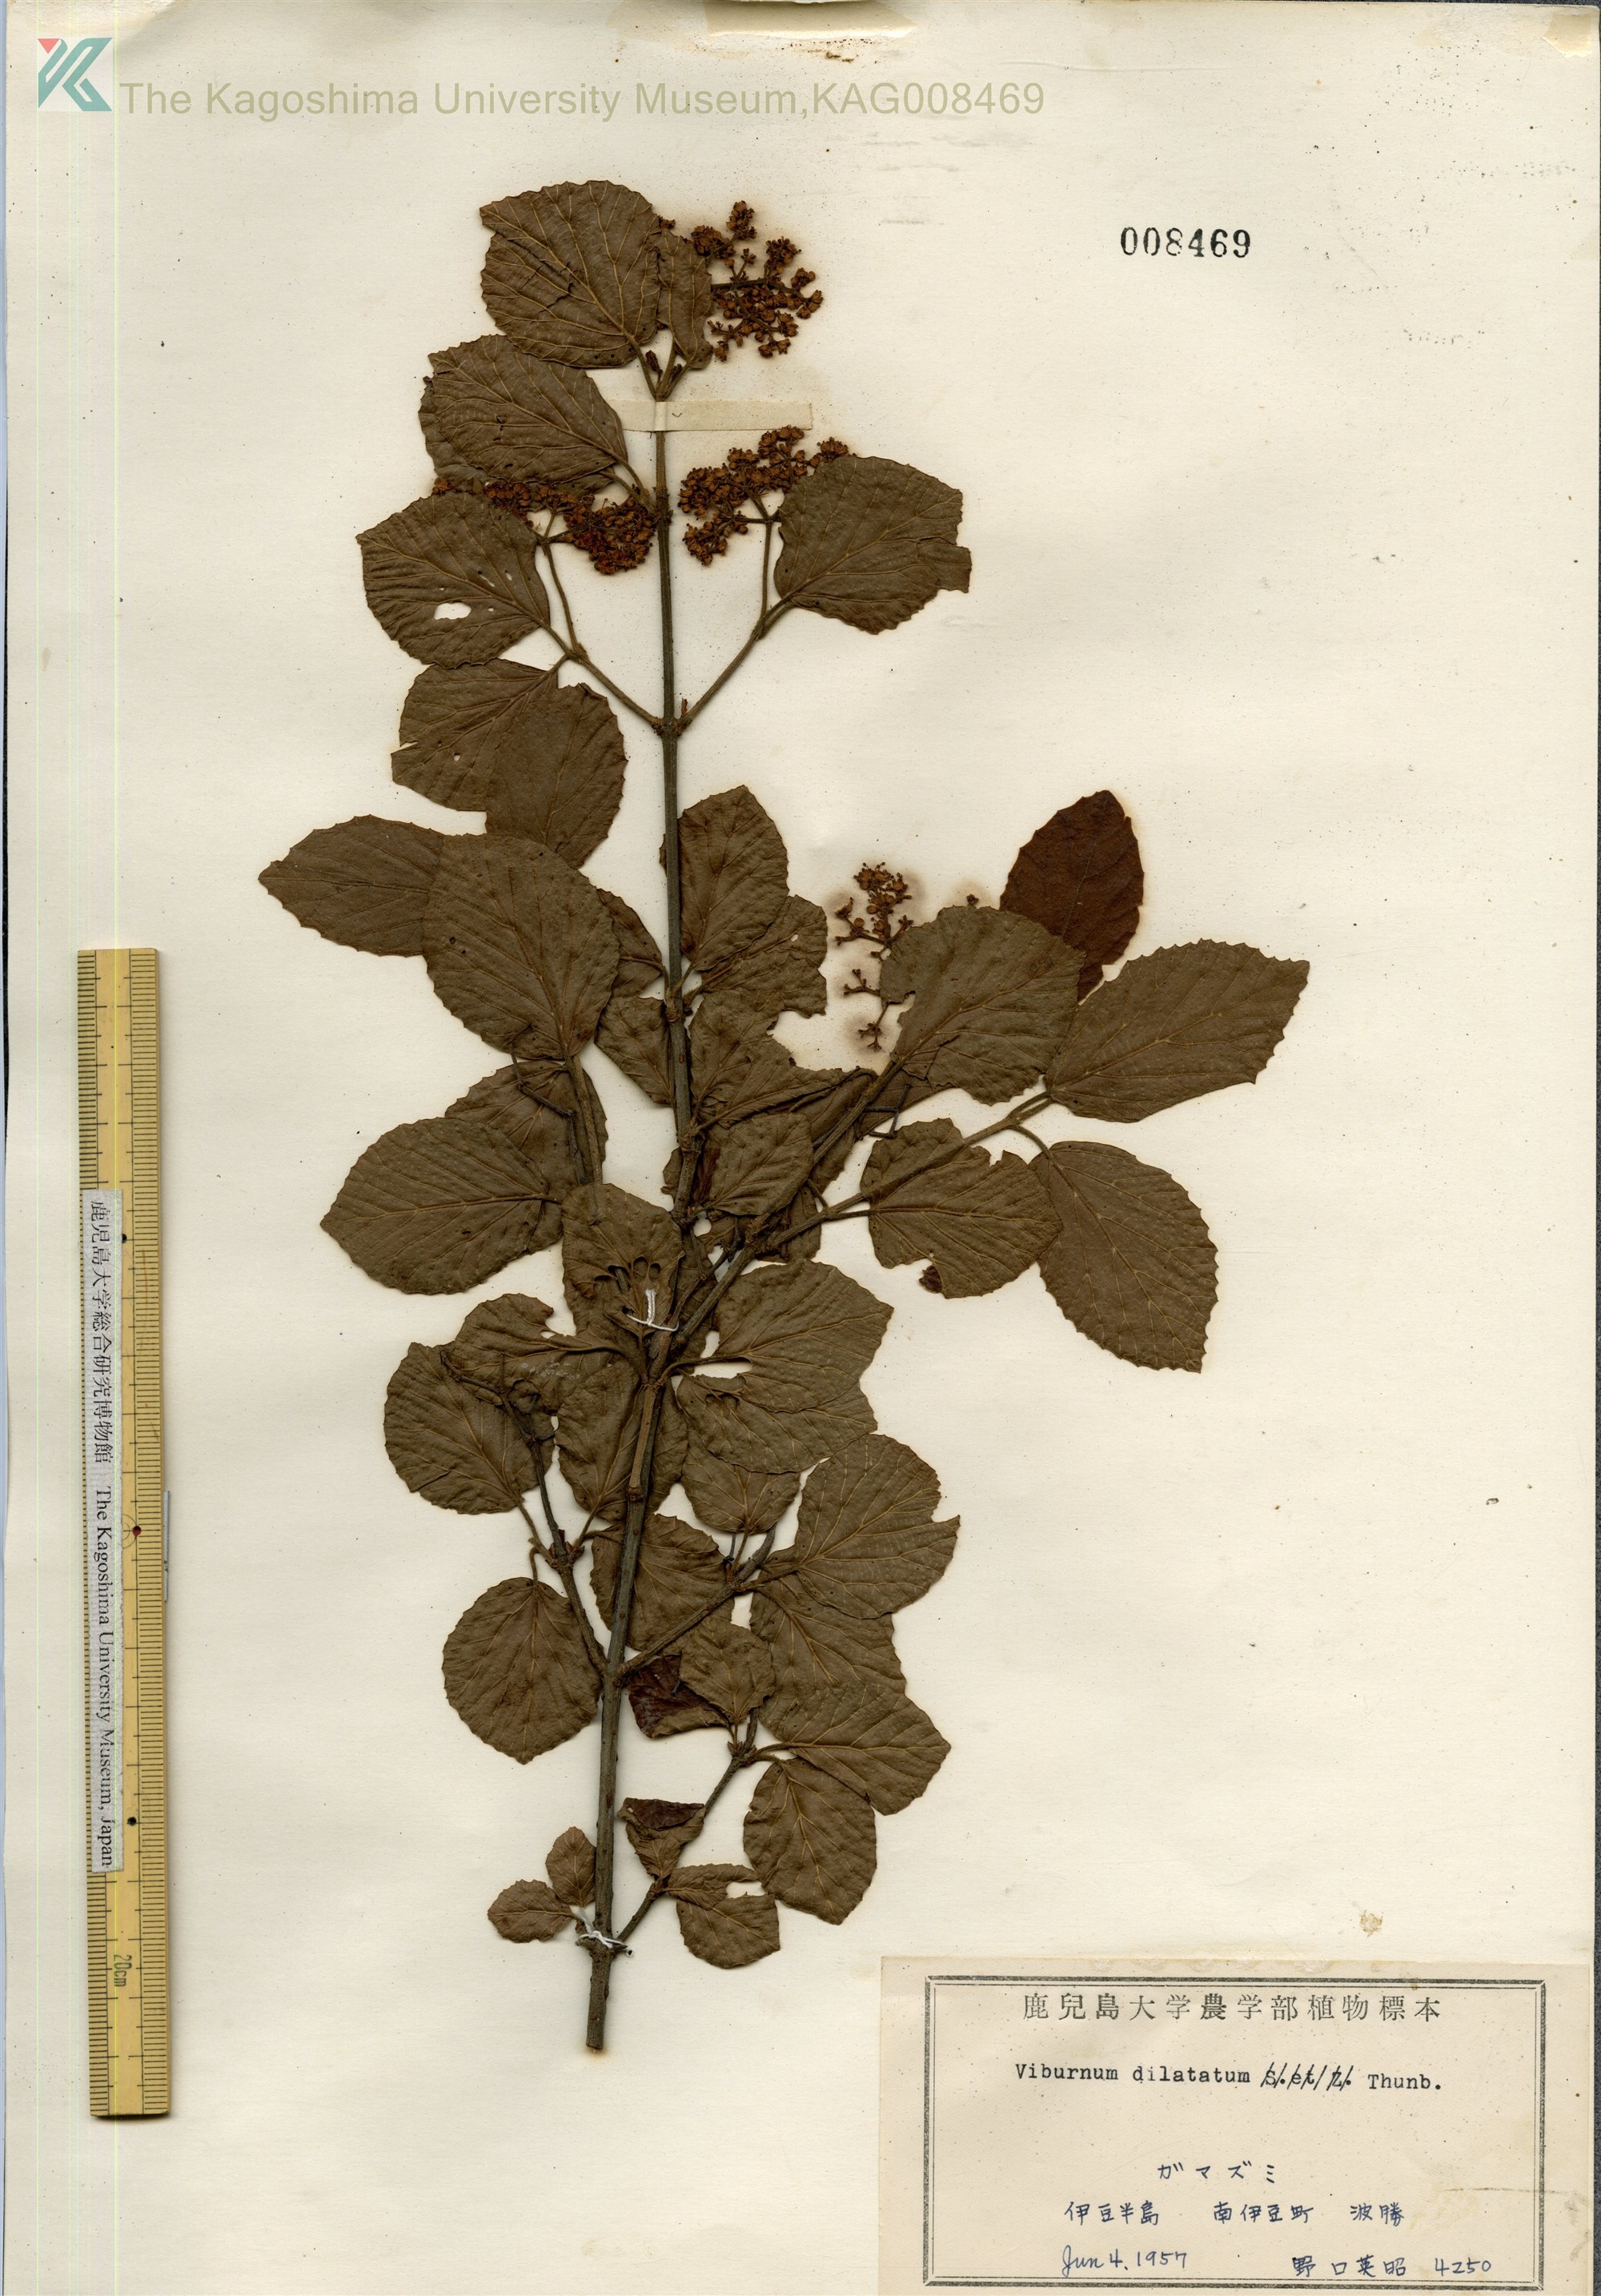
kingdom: Plantae
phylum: Tracheophyta
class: Magnoliopsida
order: Dipsacales
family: Viburnaceae
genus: Viburnum
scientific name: Viburnum dilatatum
